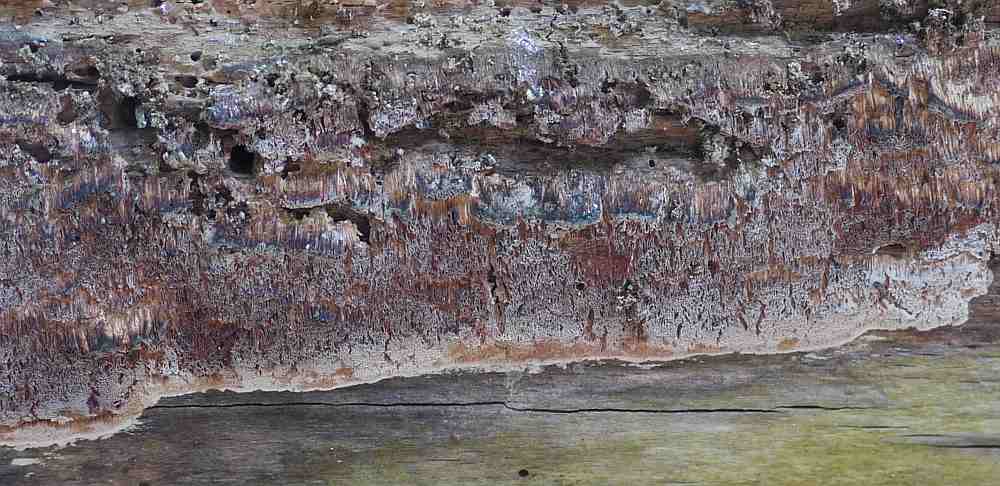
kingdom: Fungi
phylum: Basidiomycota
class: Agaricomycetes
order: Polyporales
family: Meruliaceae
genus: Mycoacia
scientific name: Mycoacia gilvescens
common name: rosa pastelporesvamp
